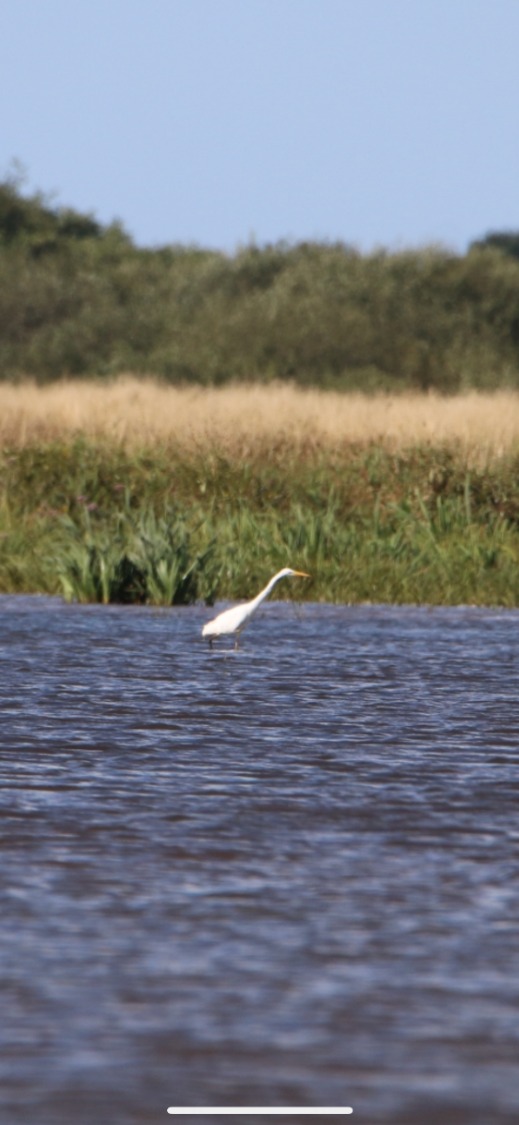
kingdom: Animalia
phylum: Chordata
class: Aves
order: Pelecaniformes
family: Ardeidae
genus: Ardea
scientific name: Ardea alba
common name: Sølvhejre
